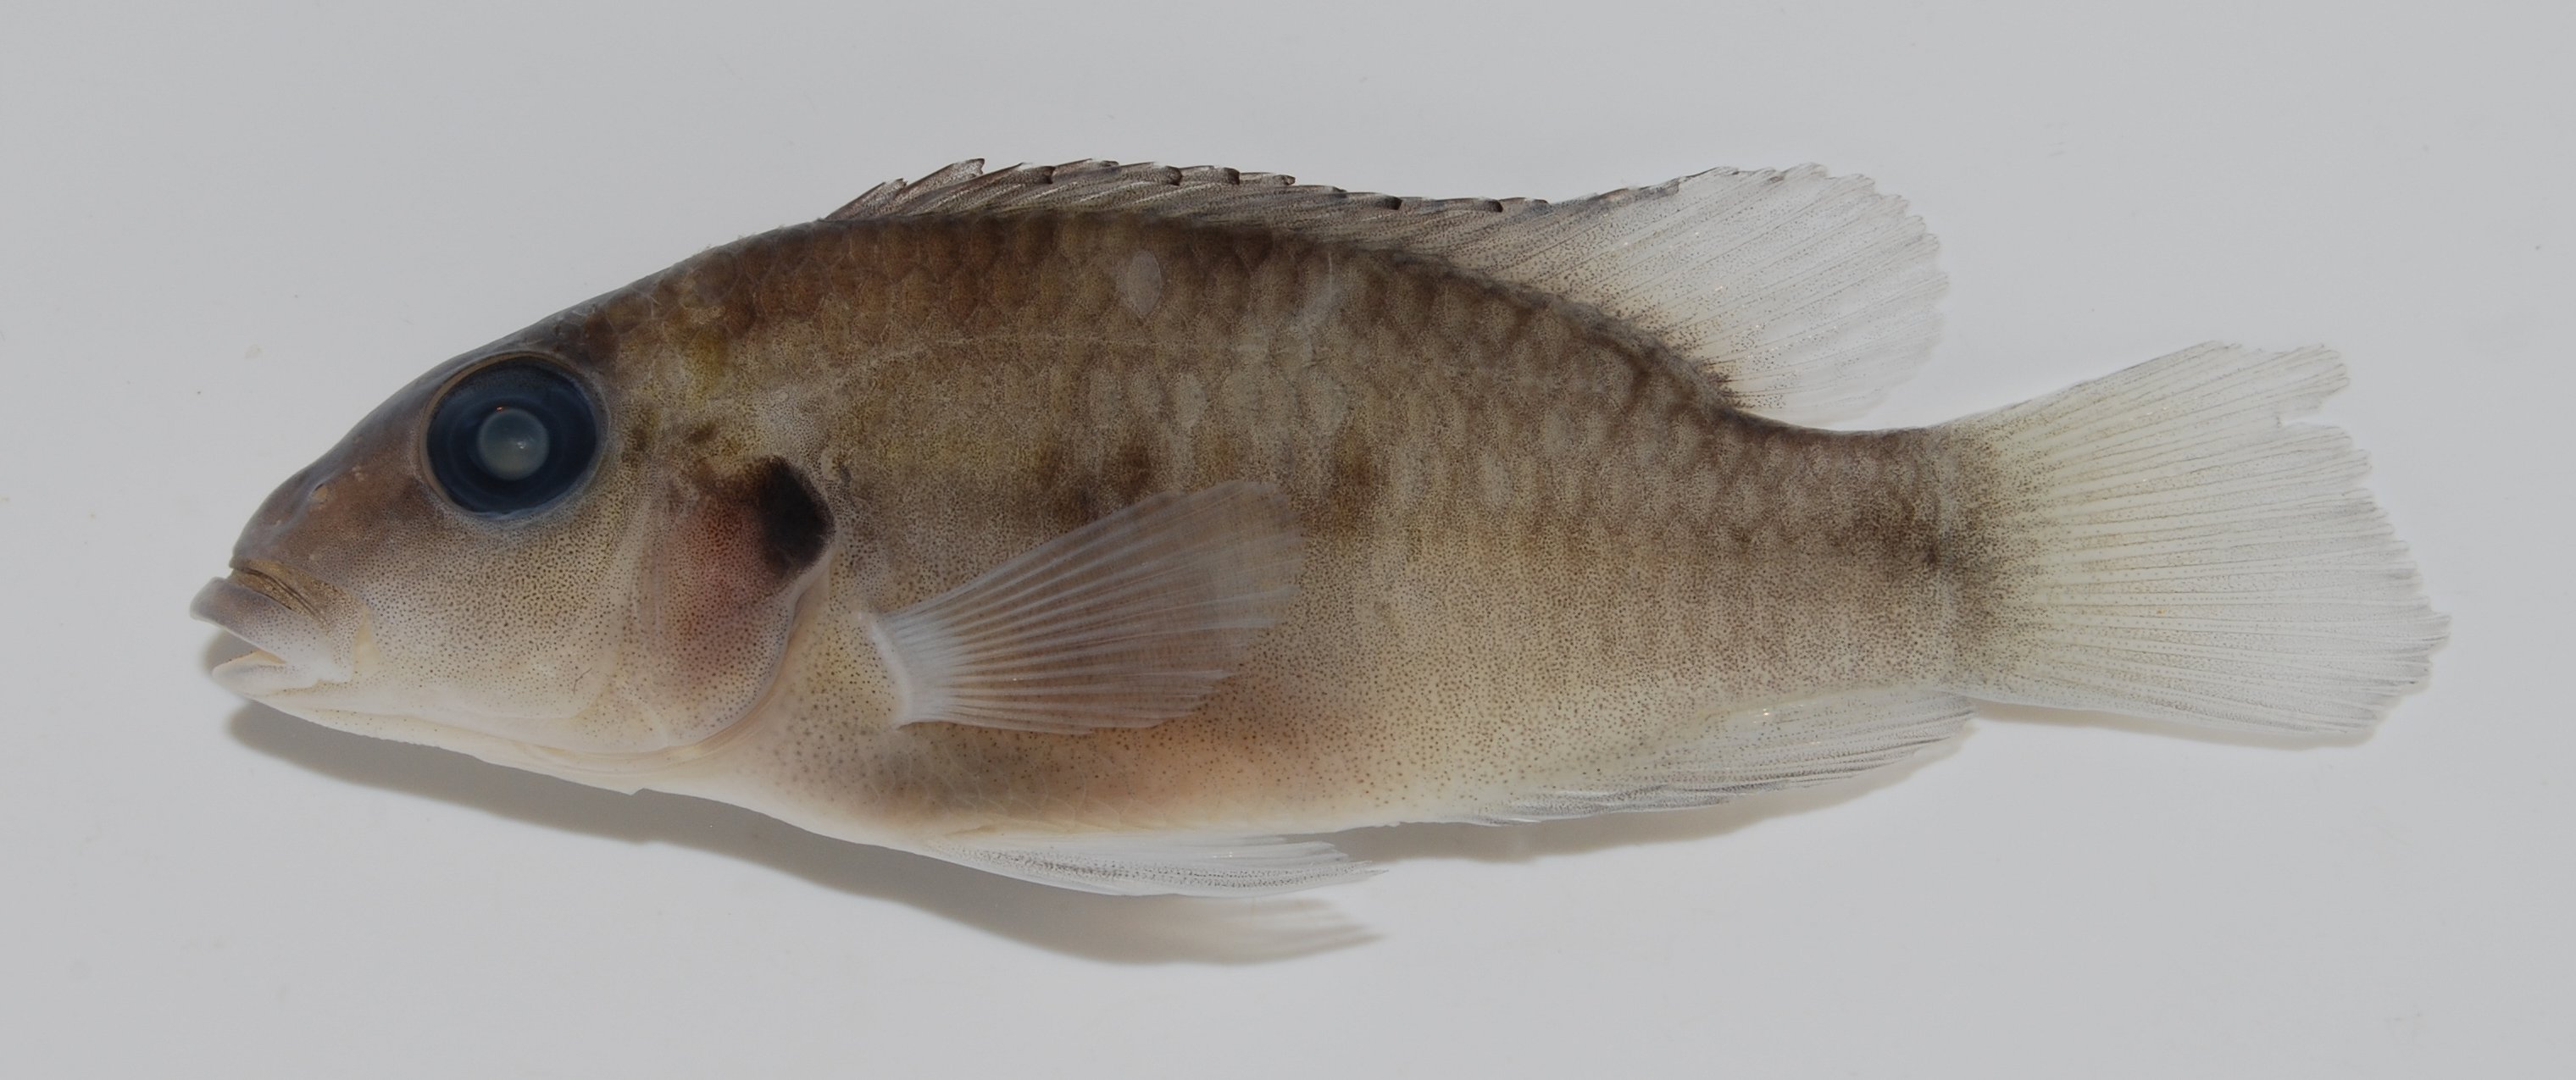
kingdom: Animalia
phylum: Chordata
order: Perciformes
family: Cichlidae
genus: Chromidotilapia
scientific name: Chromidotilapia kingsleyae
